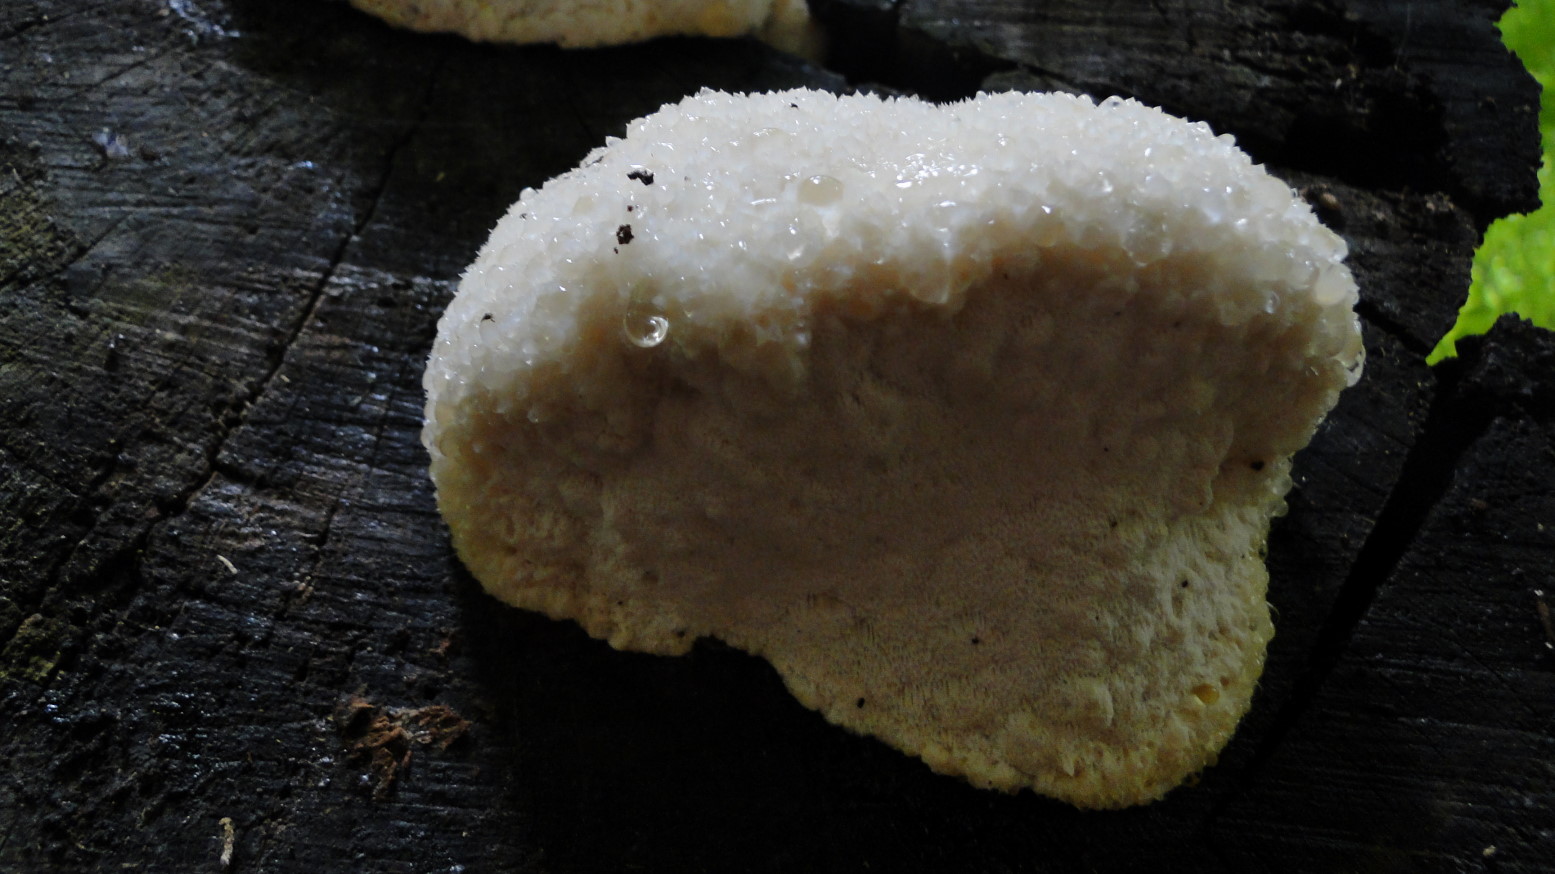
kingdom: Fungi
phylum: Basidiomycota
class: Agaricomycetes
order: Polyporales
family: Meruliaceae
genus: Pappia
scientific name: Pappia fissilis
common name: rosa fedtporesvamp
